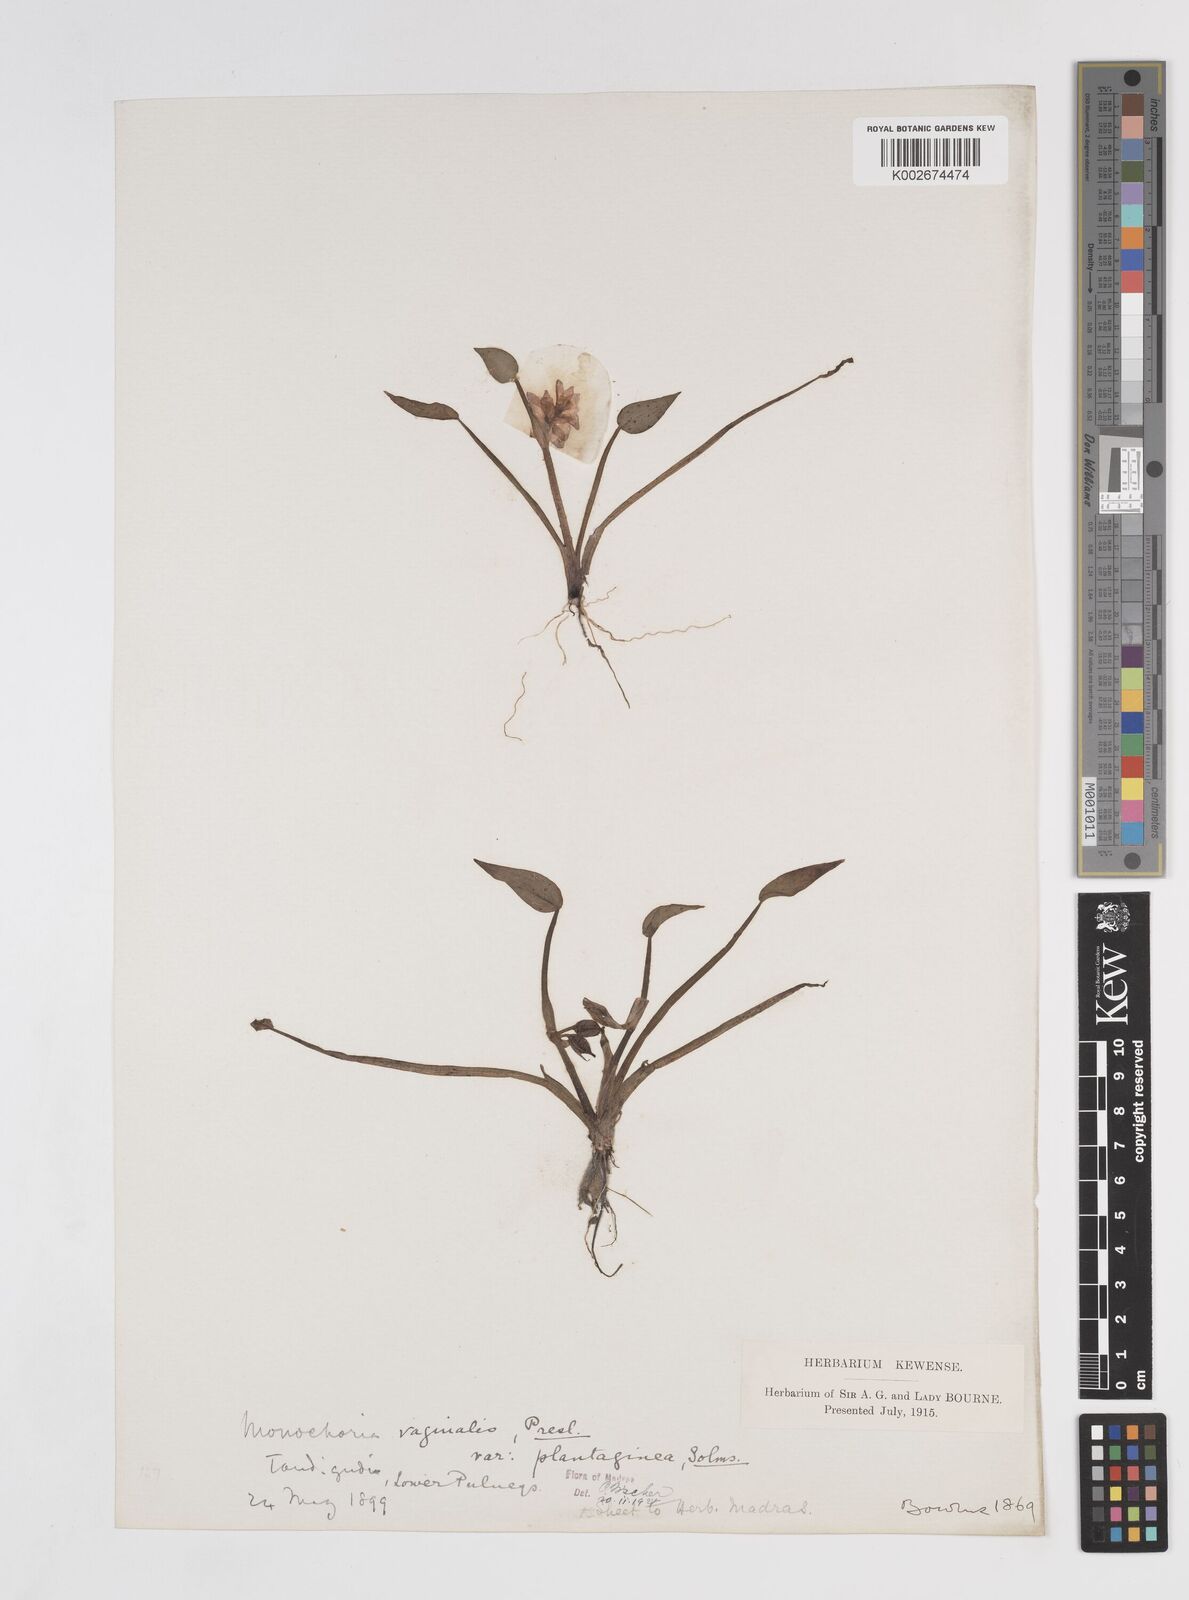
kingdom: Plantae
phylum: Tracheophyta
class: Liliopsida
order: Commelinales
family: Pontederiaceae
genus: Pontederia
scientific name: Pontederia vaginalis
